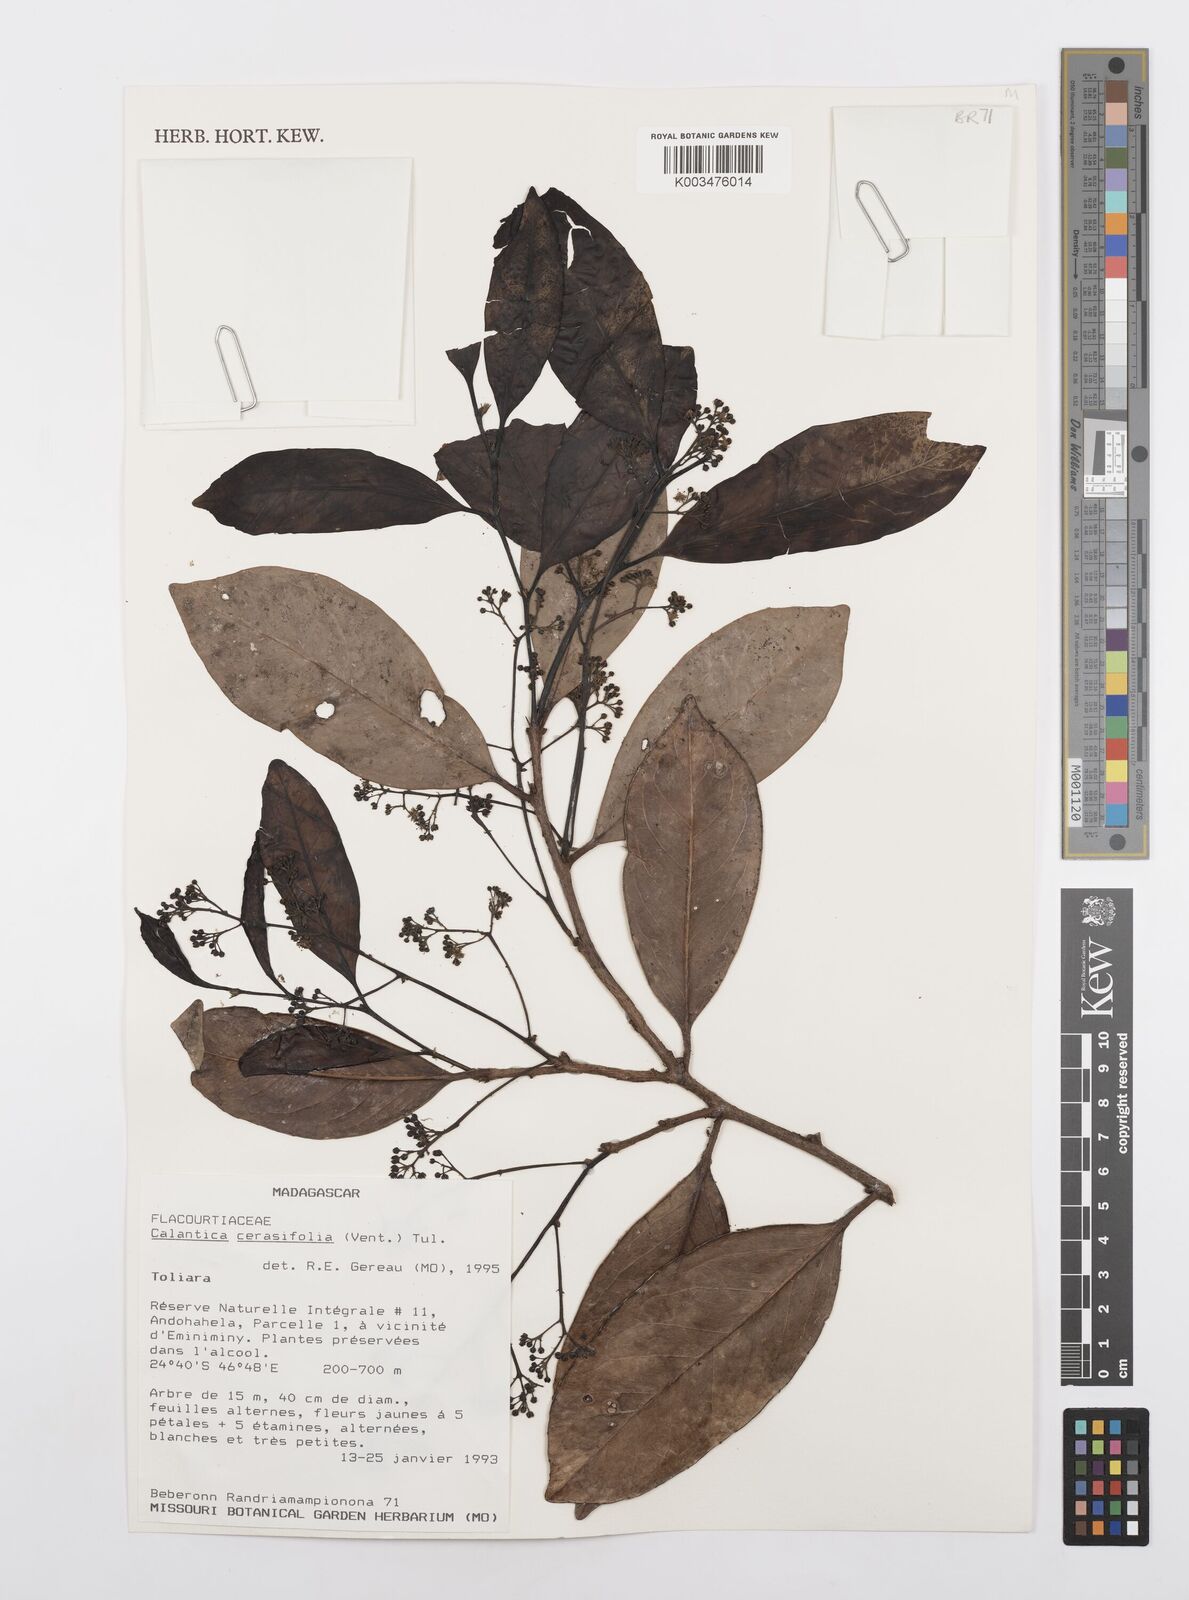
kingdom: Plantae
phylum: Tracheophyta
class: Magnoliopsida
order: Malpighiales
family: Salicaceae
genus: Calantica
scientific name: Calantica cerasifolia
